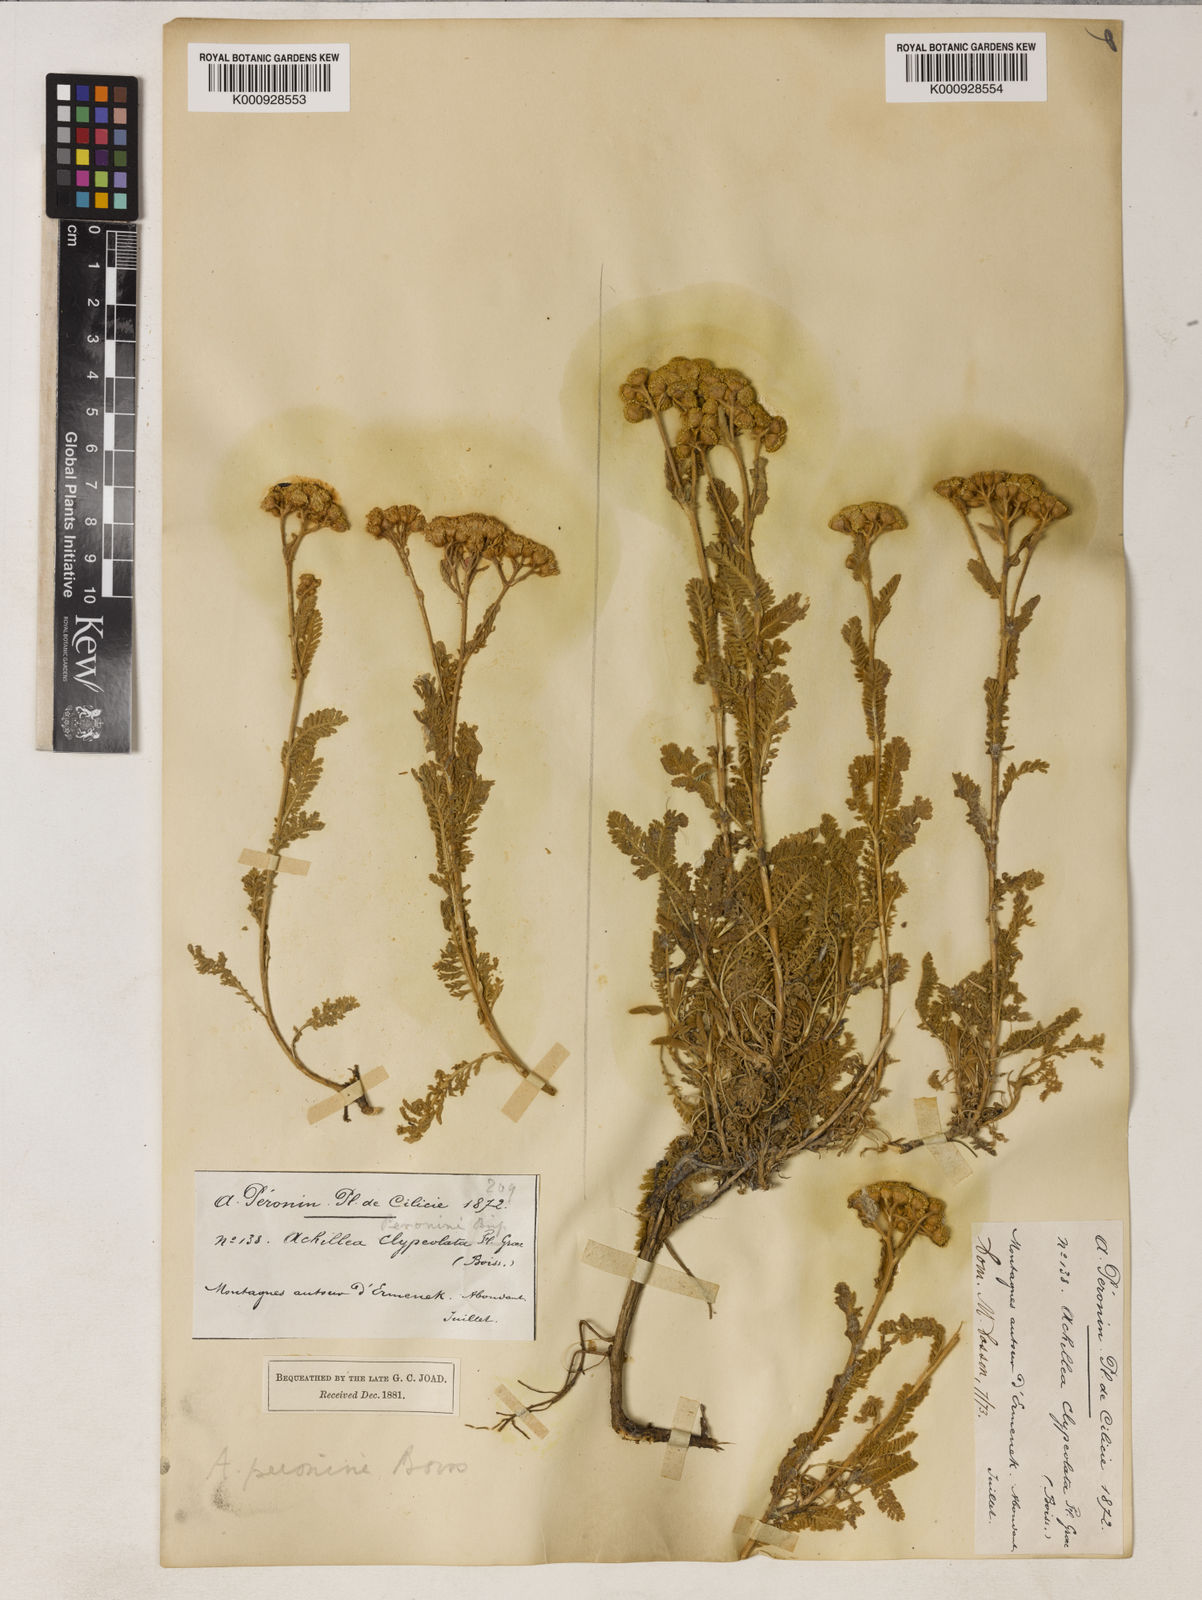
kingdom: Plantae
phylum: Tracheophyta
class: Magnoliopsida
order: Asterales
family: Asteraceae
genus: Tanacetum
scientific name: Tanacetum cadmeum
